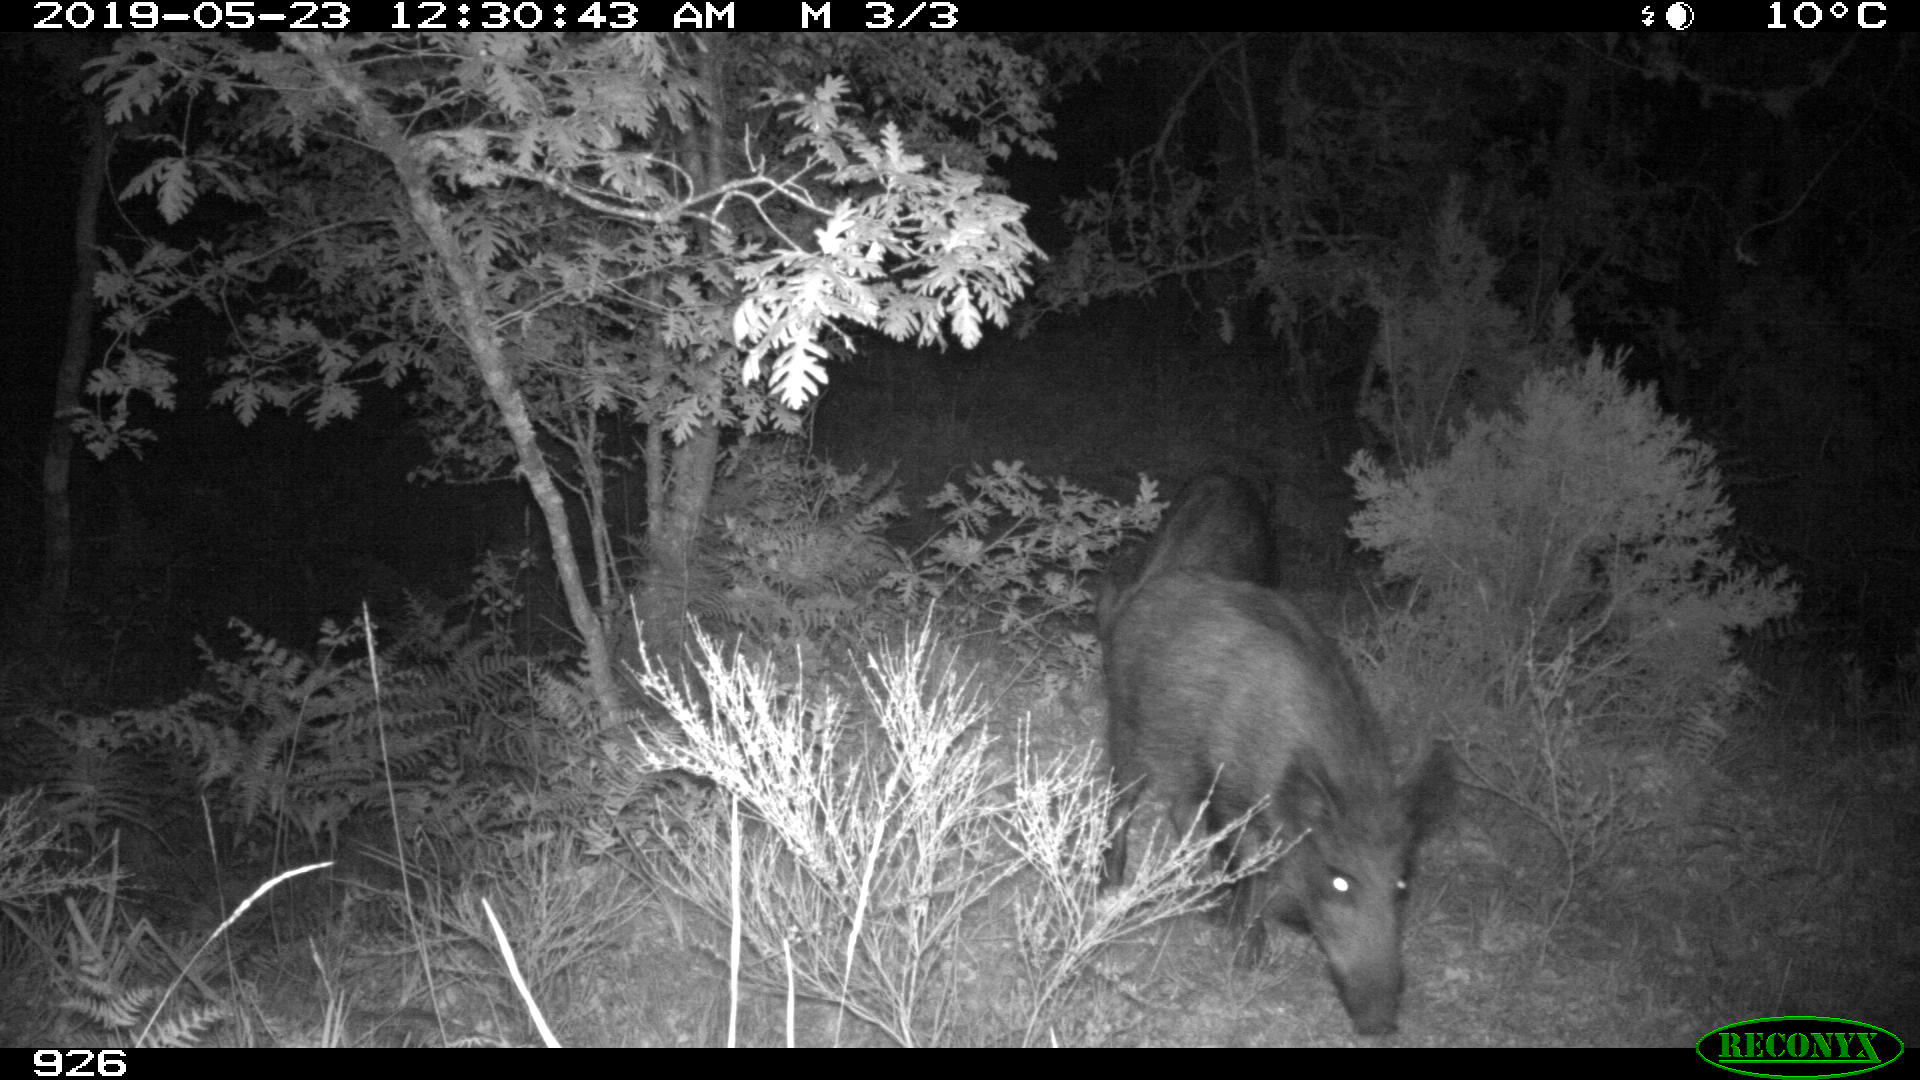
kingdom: Animalia
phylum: Chordata
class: Mammalia
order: Artiodactyla
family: Suidae
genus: Sus
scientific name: Sus scrofa
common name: Wild boar
